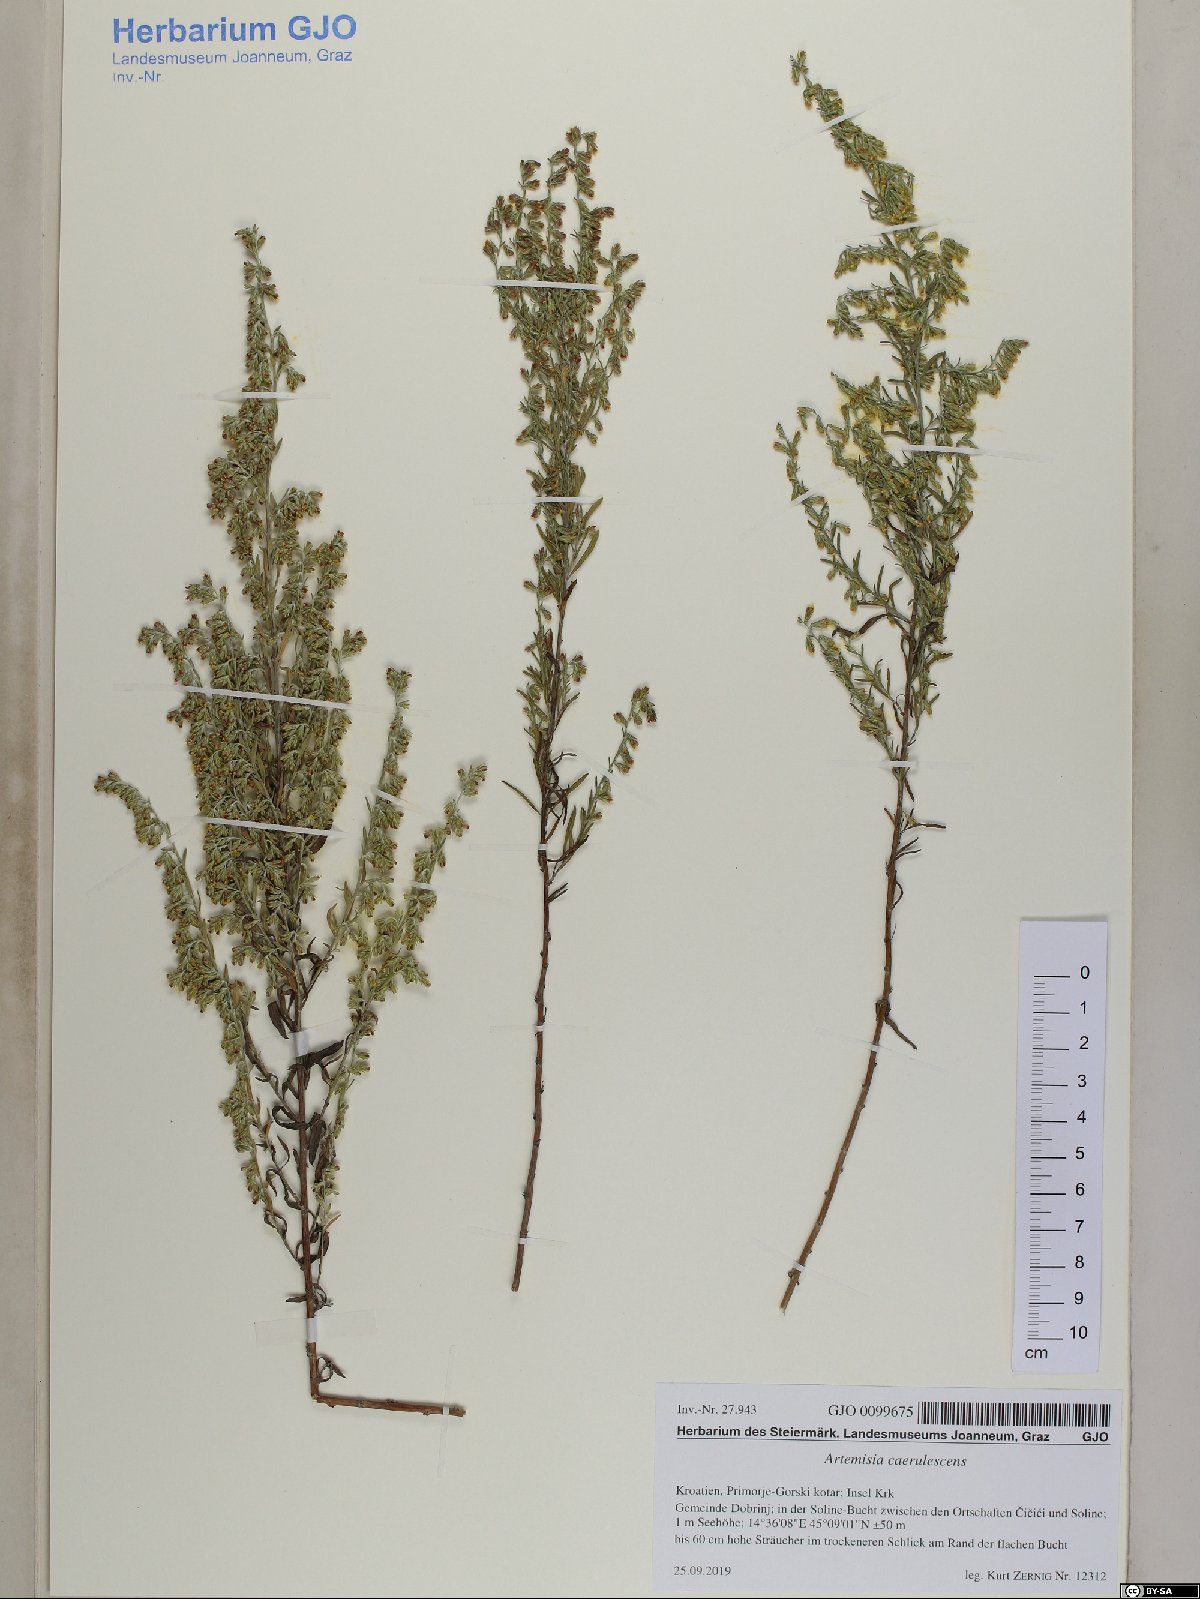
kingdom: Plantae
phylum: Tracheophyta
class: Magnoliopsida
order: Asterales
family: Asteraceae
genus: Artemisia
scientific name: Artemisia caerulescens
